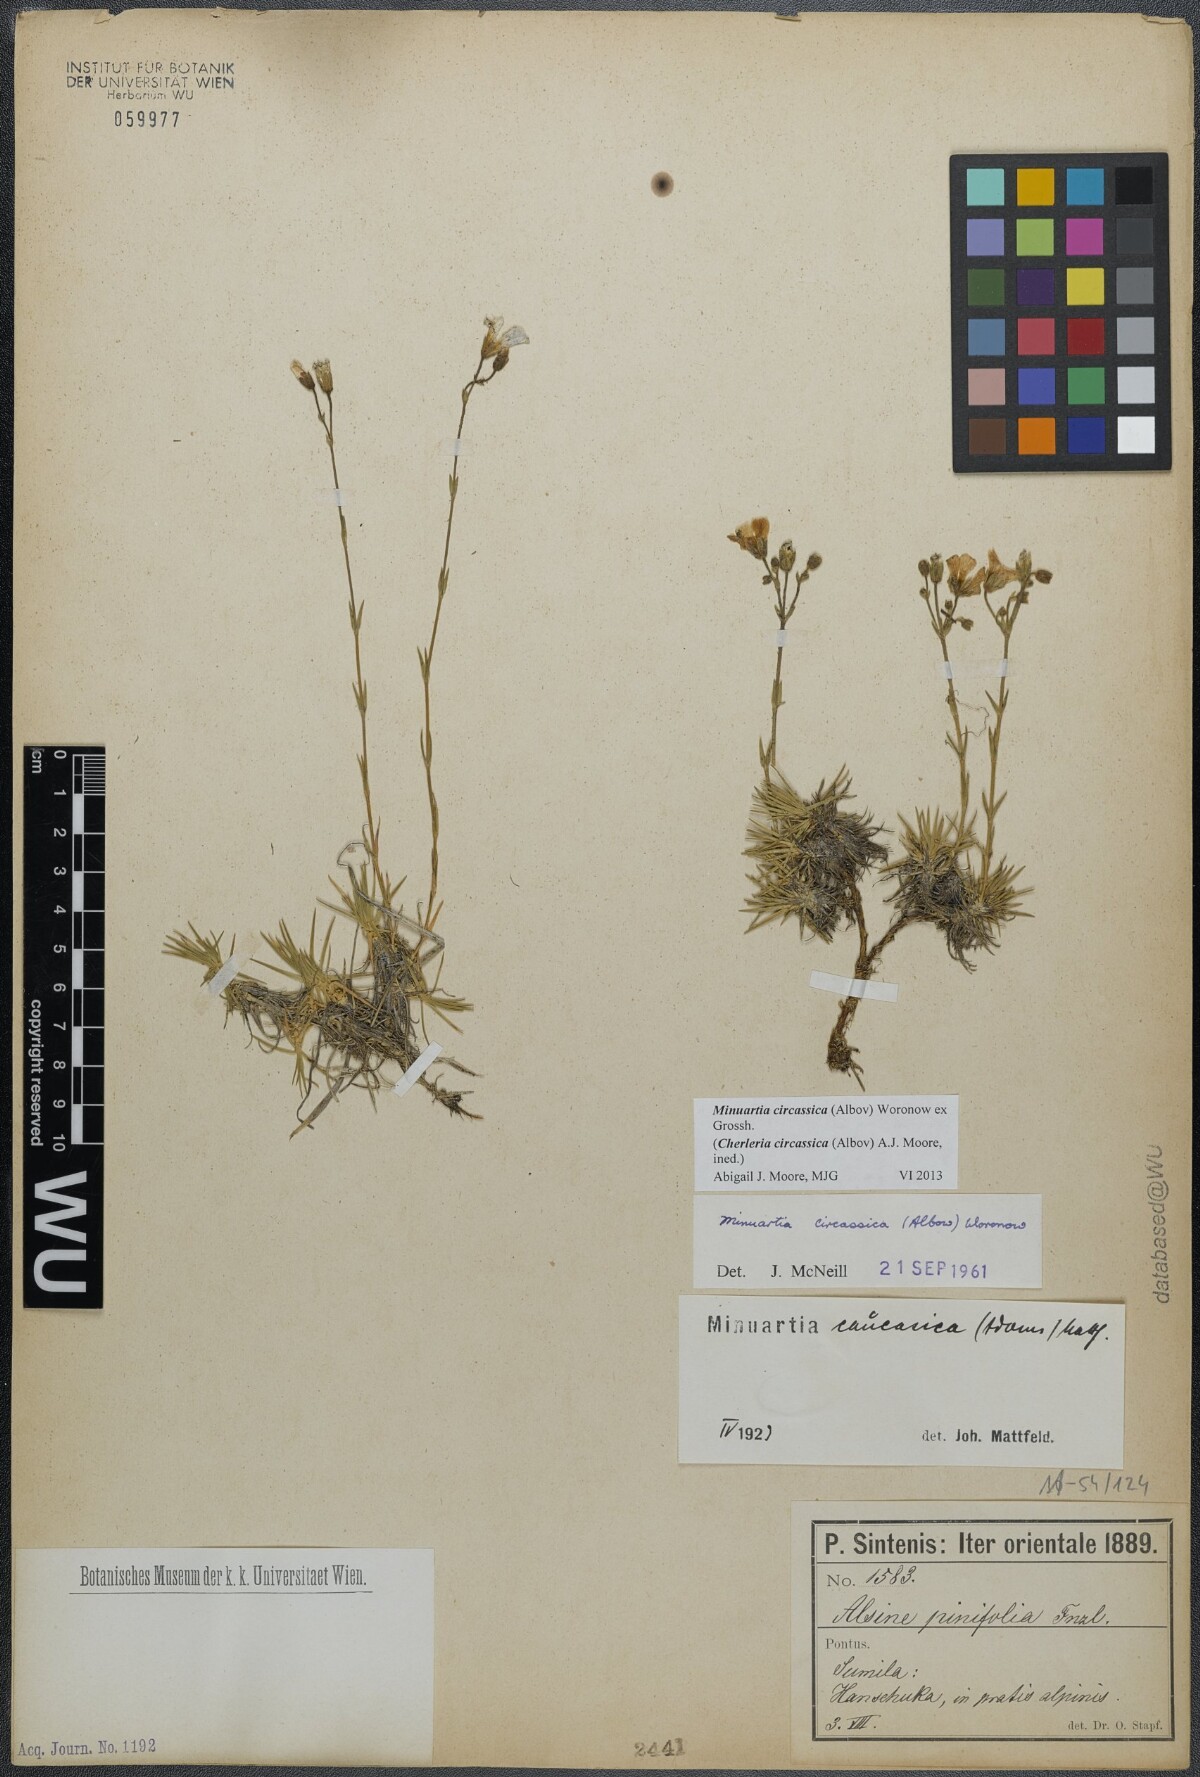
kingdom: Plantae
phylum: Tracheophyta
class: Magnoliopsida
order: Caryophyllales
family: Caryophyllaceae
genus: Cherleria
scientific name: Cherleria circassica
